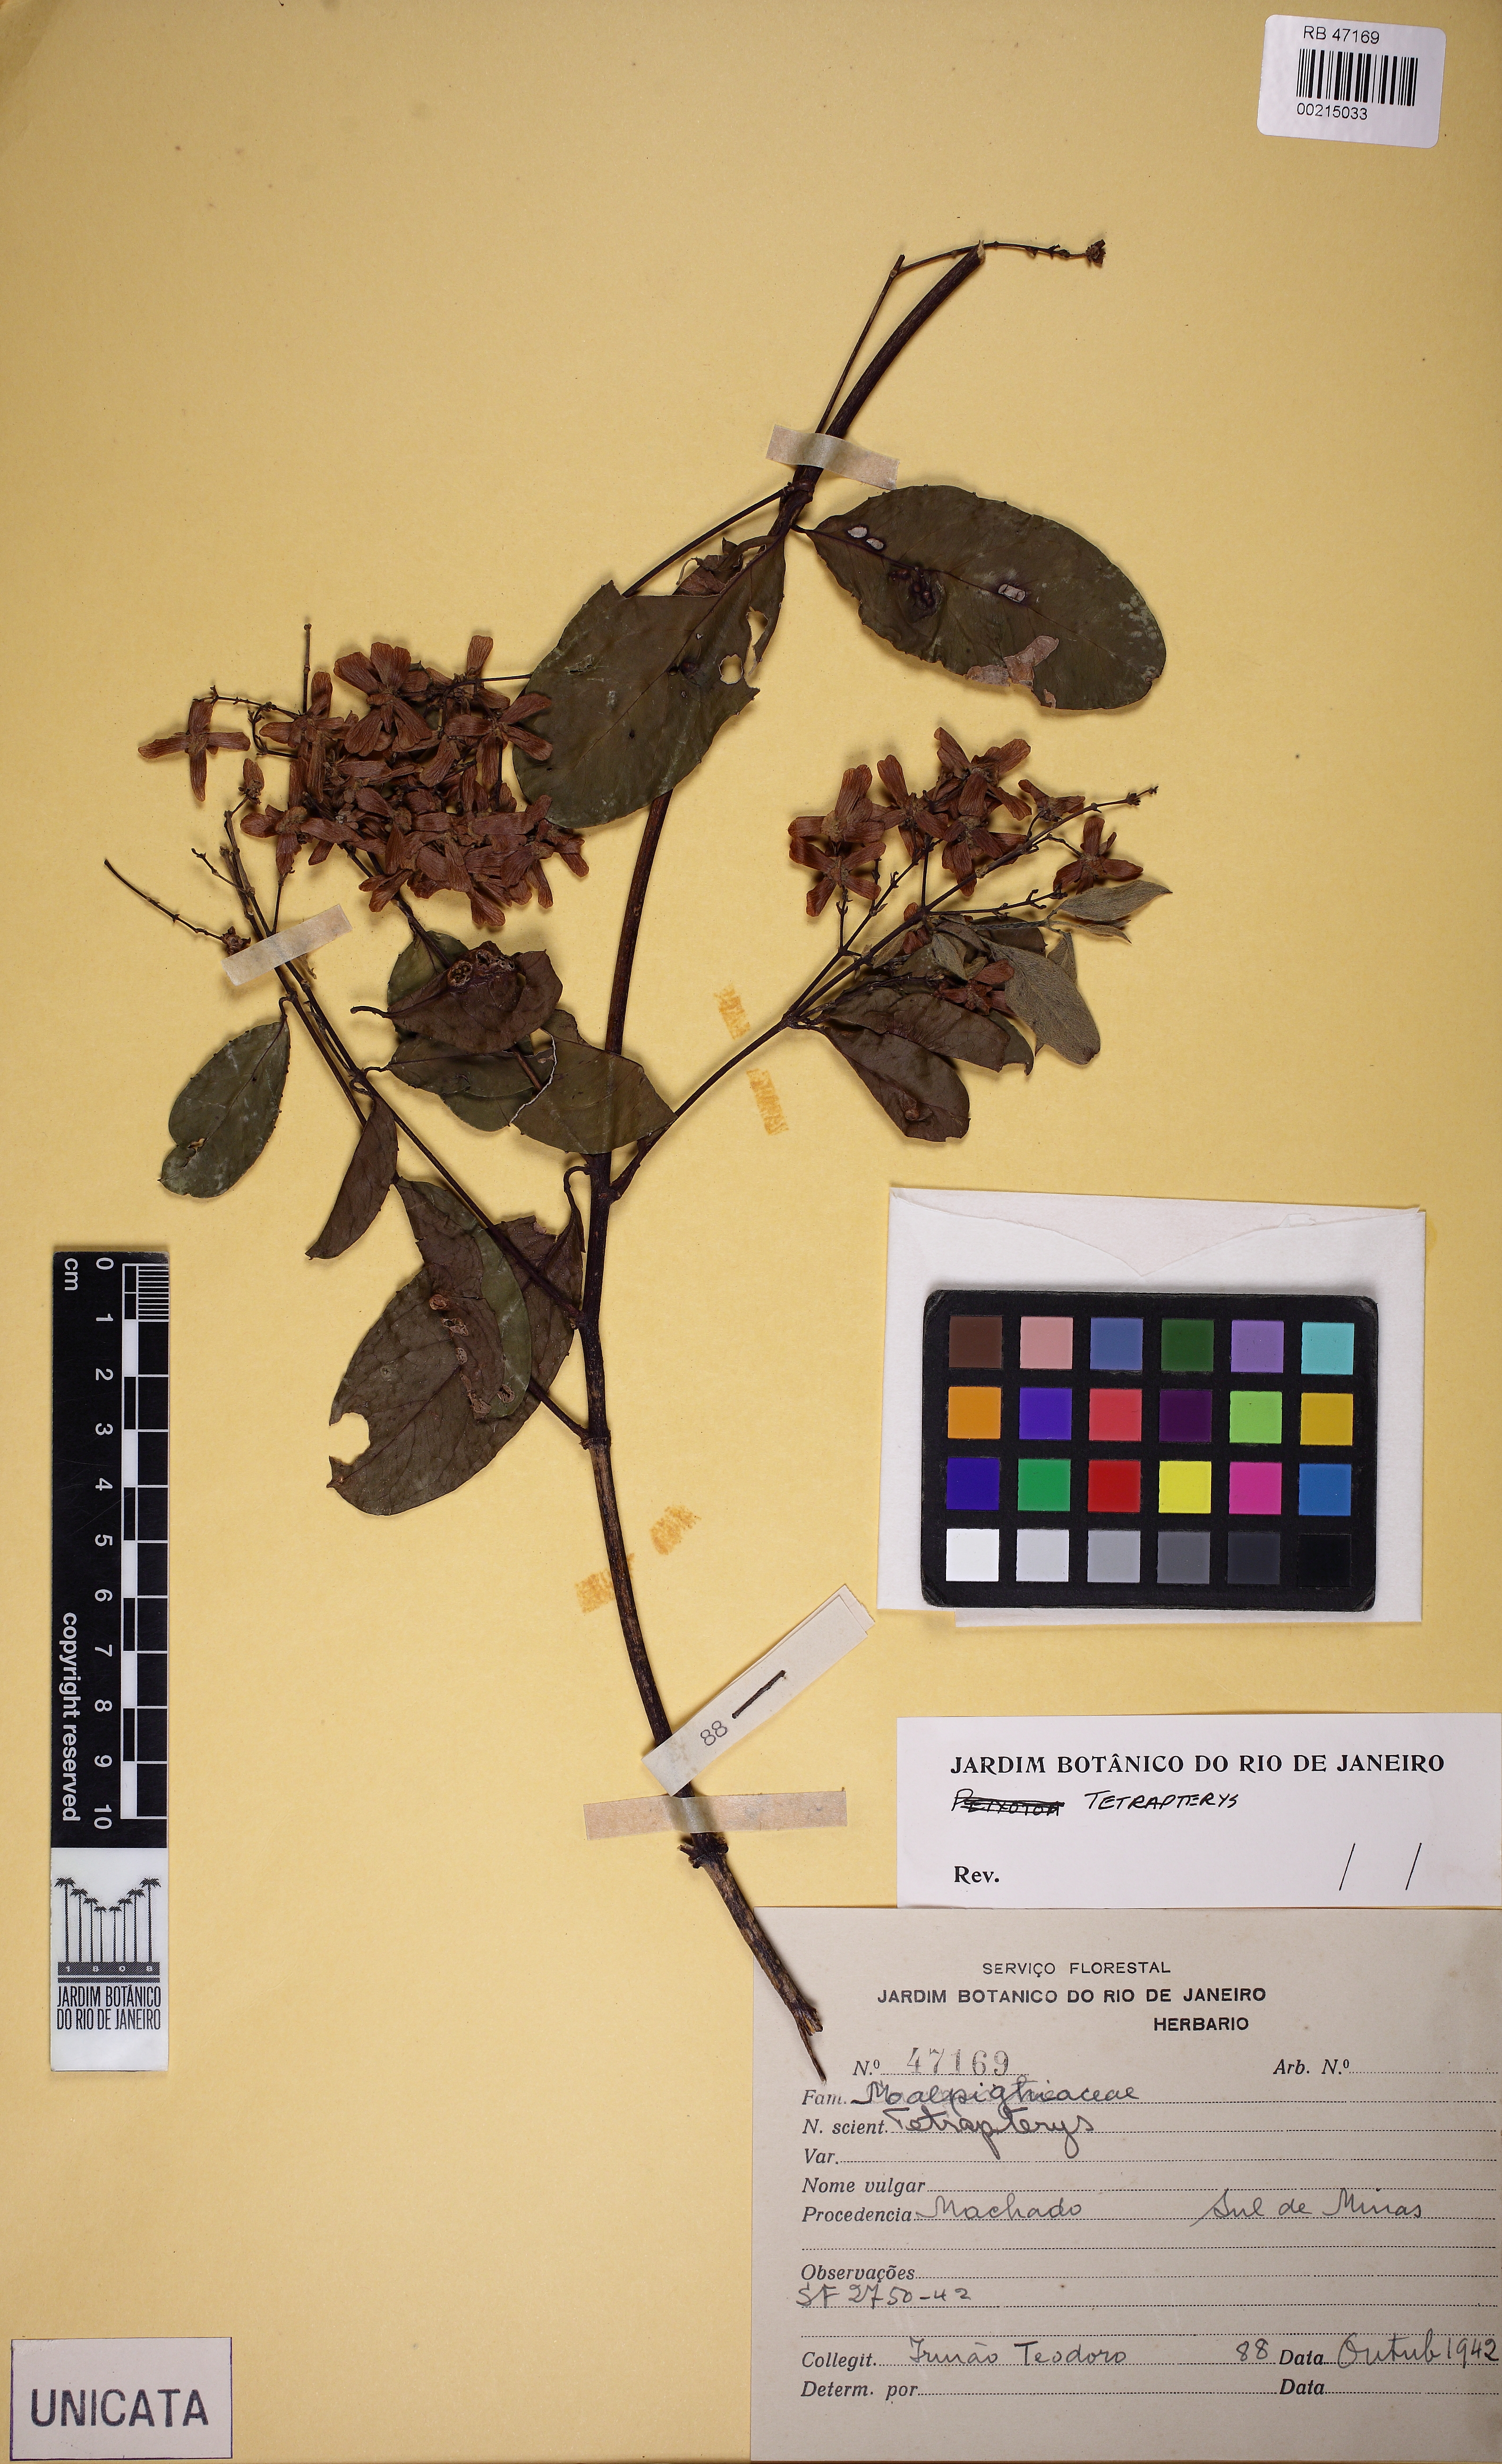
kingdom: Plantae
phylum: Tracheophyta
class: Magnoliopsida
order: Malpighiales
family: Malpighiaceae
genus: Niedenzuella
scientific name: Niedenzuella multiglandulosa
